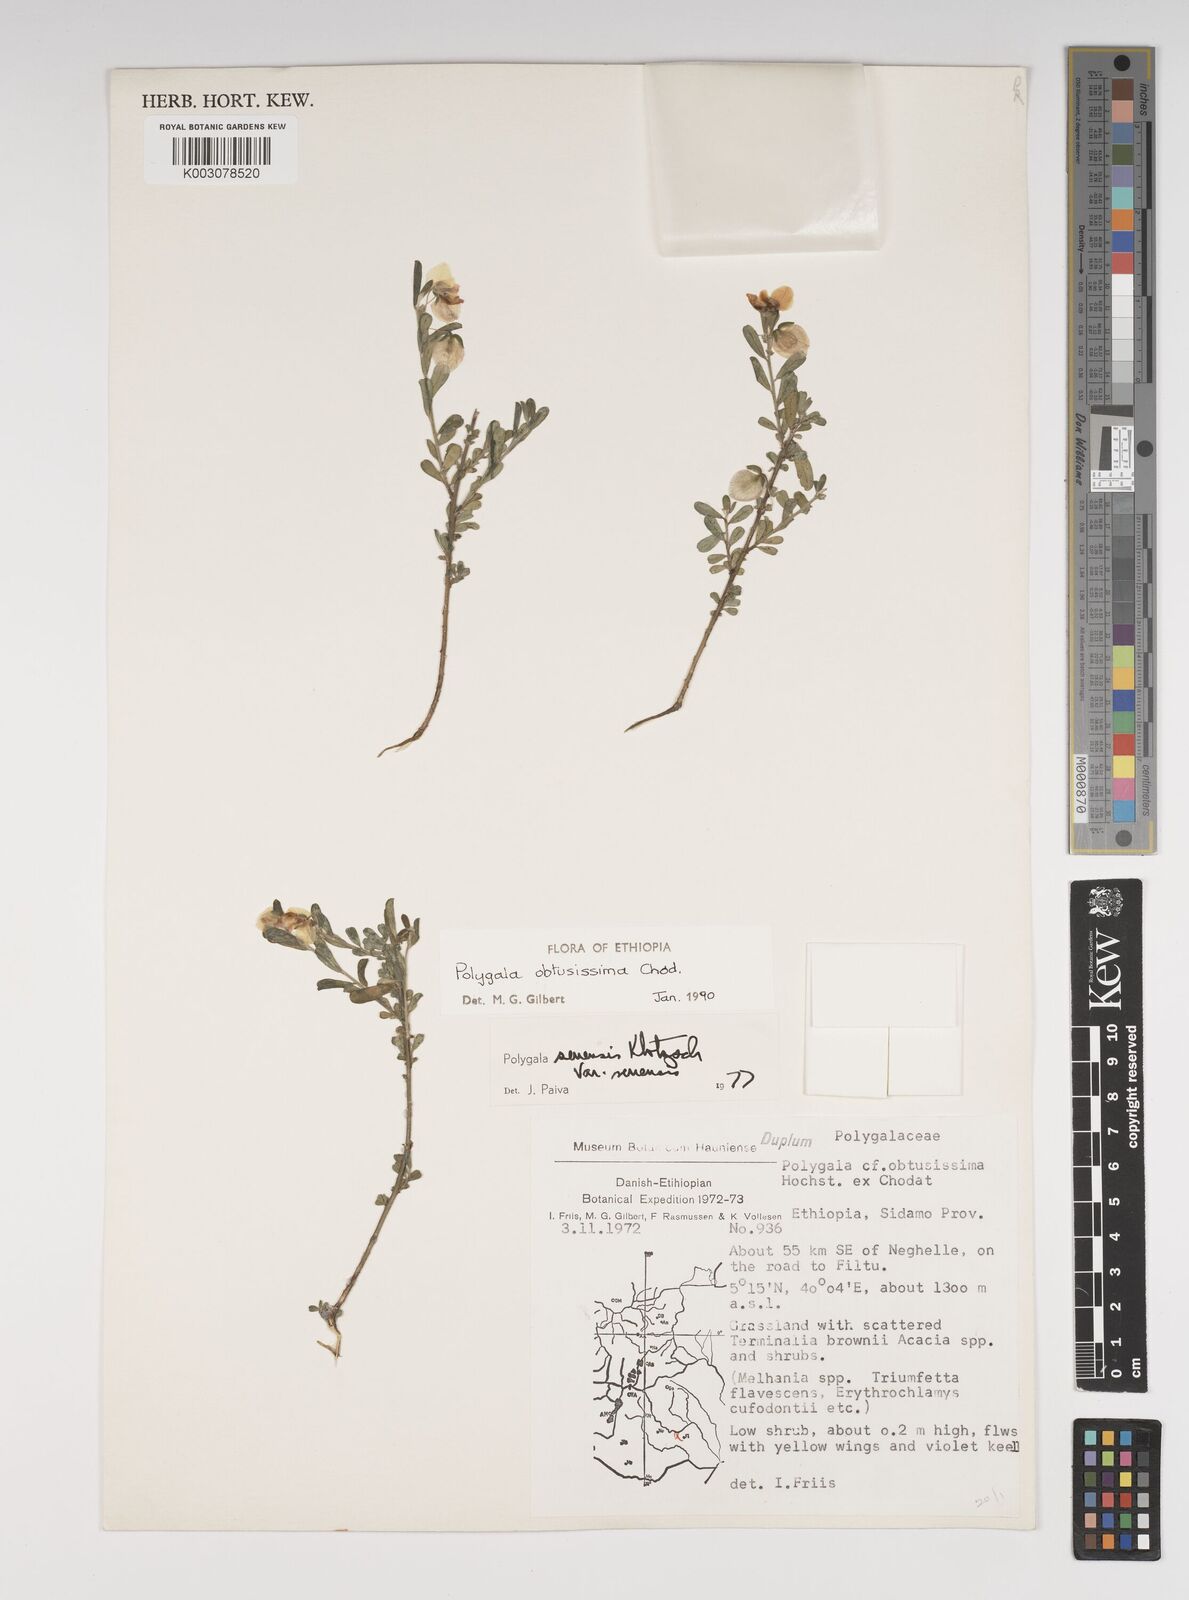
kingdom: Plantae
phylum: Tracheophyta
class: Magnoliopsida
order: Fabales
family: Polygalaceae
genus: Polygala
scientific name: Polygala senensis
